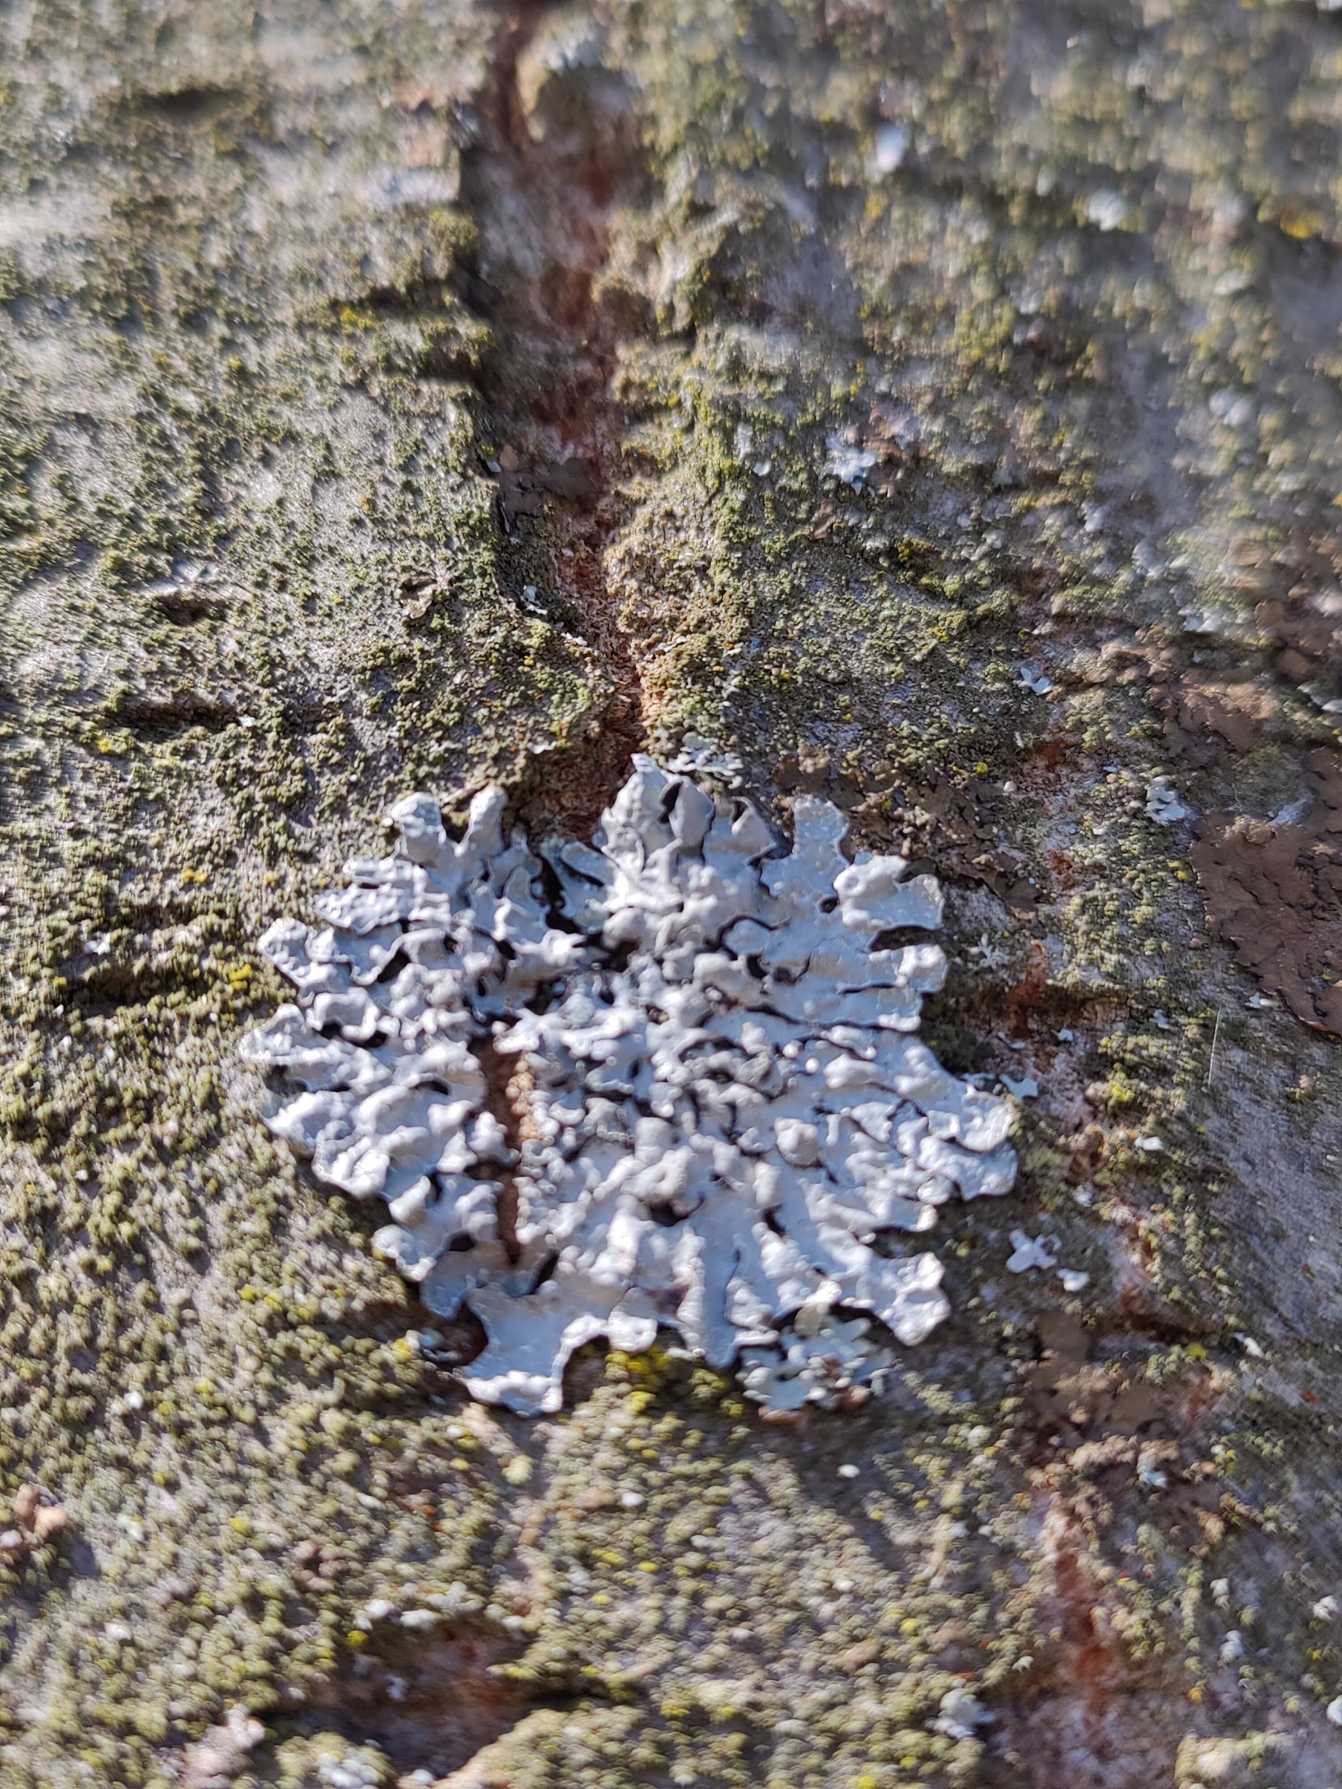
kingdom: Fungi
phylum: Ascomycota
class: Lecanoromycetes
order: Lecanorales
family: Parmeliaceae
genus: Parmelia
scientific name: Parmelia sulcata
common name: Rynket skållav
